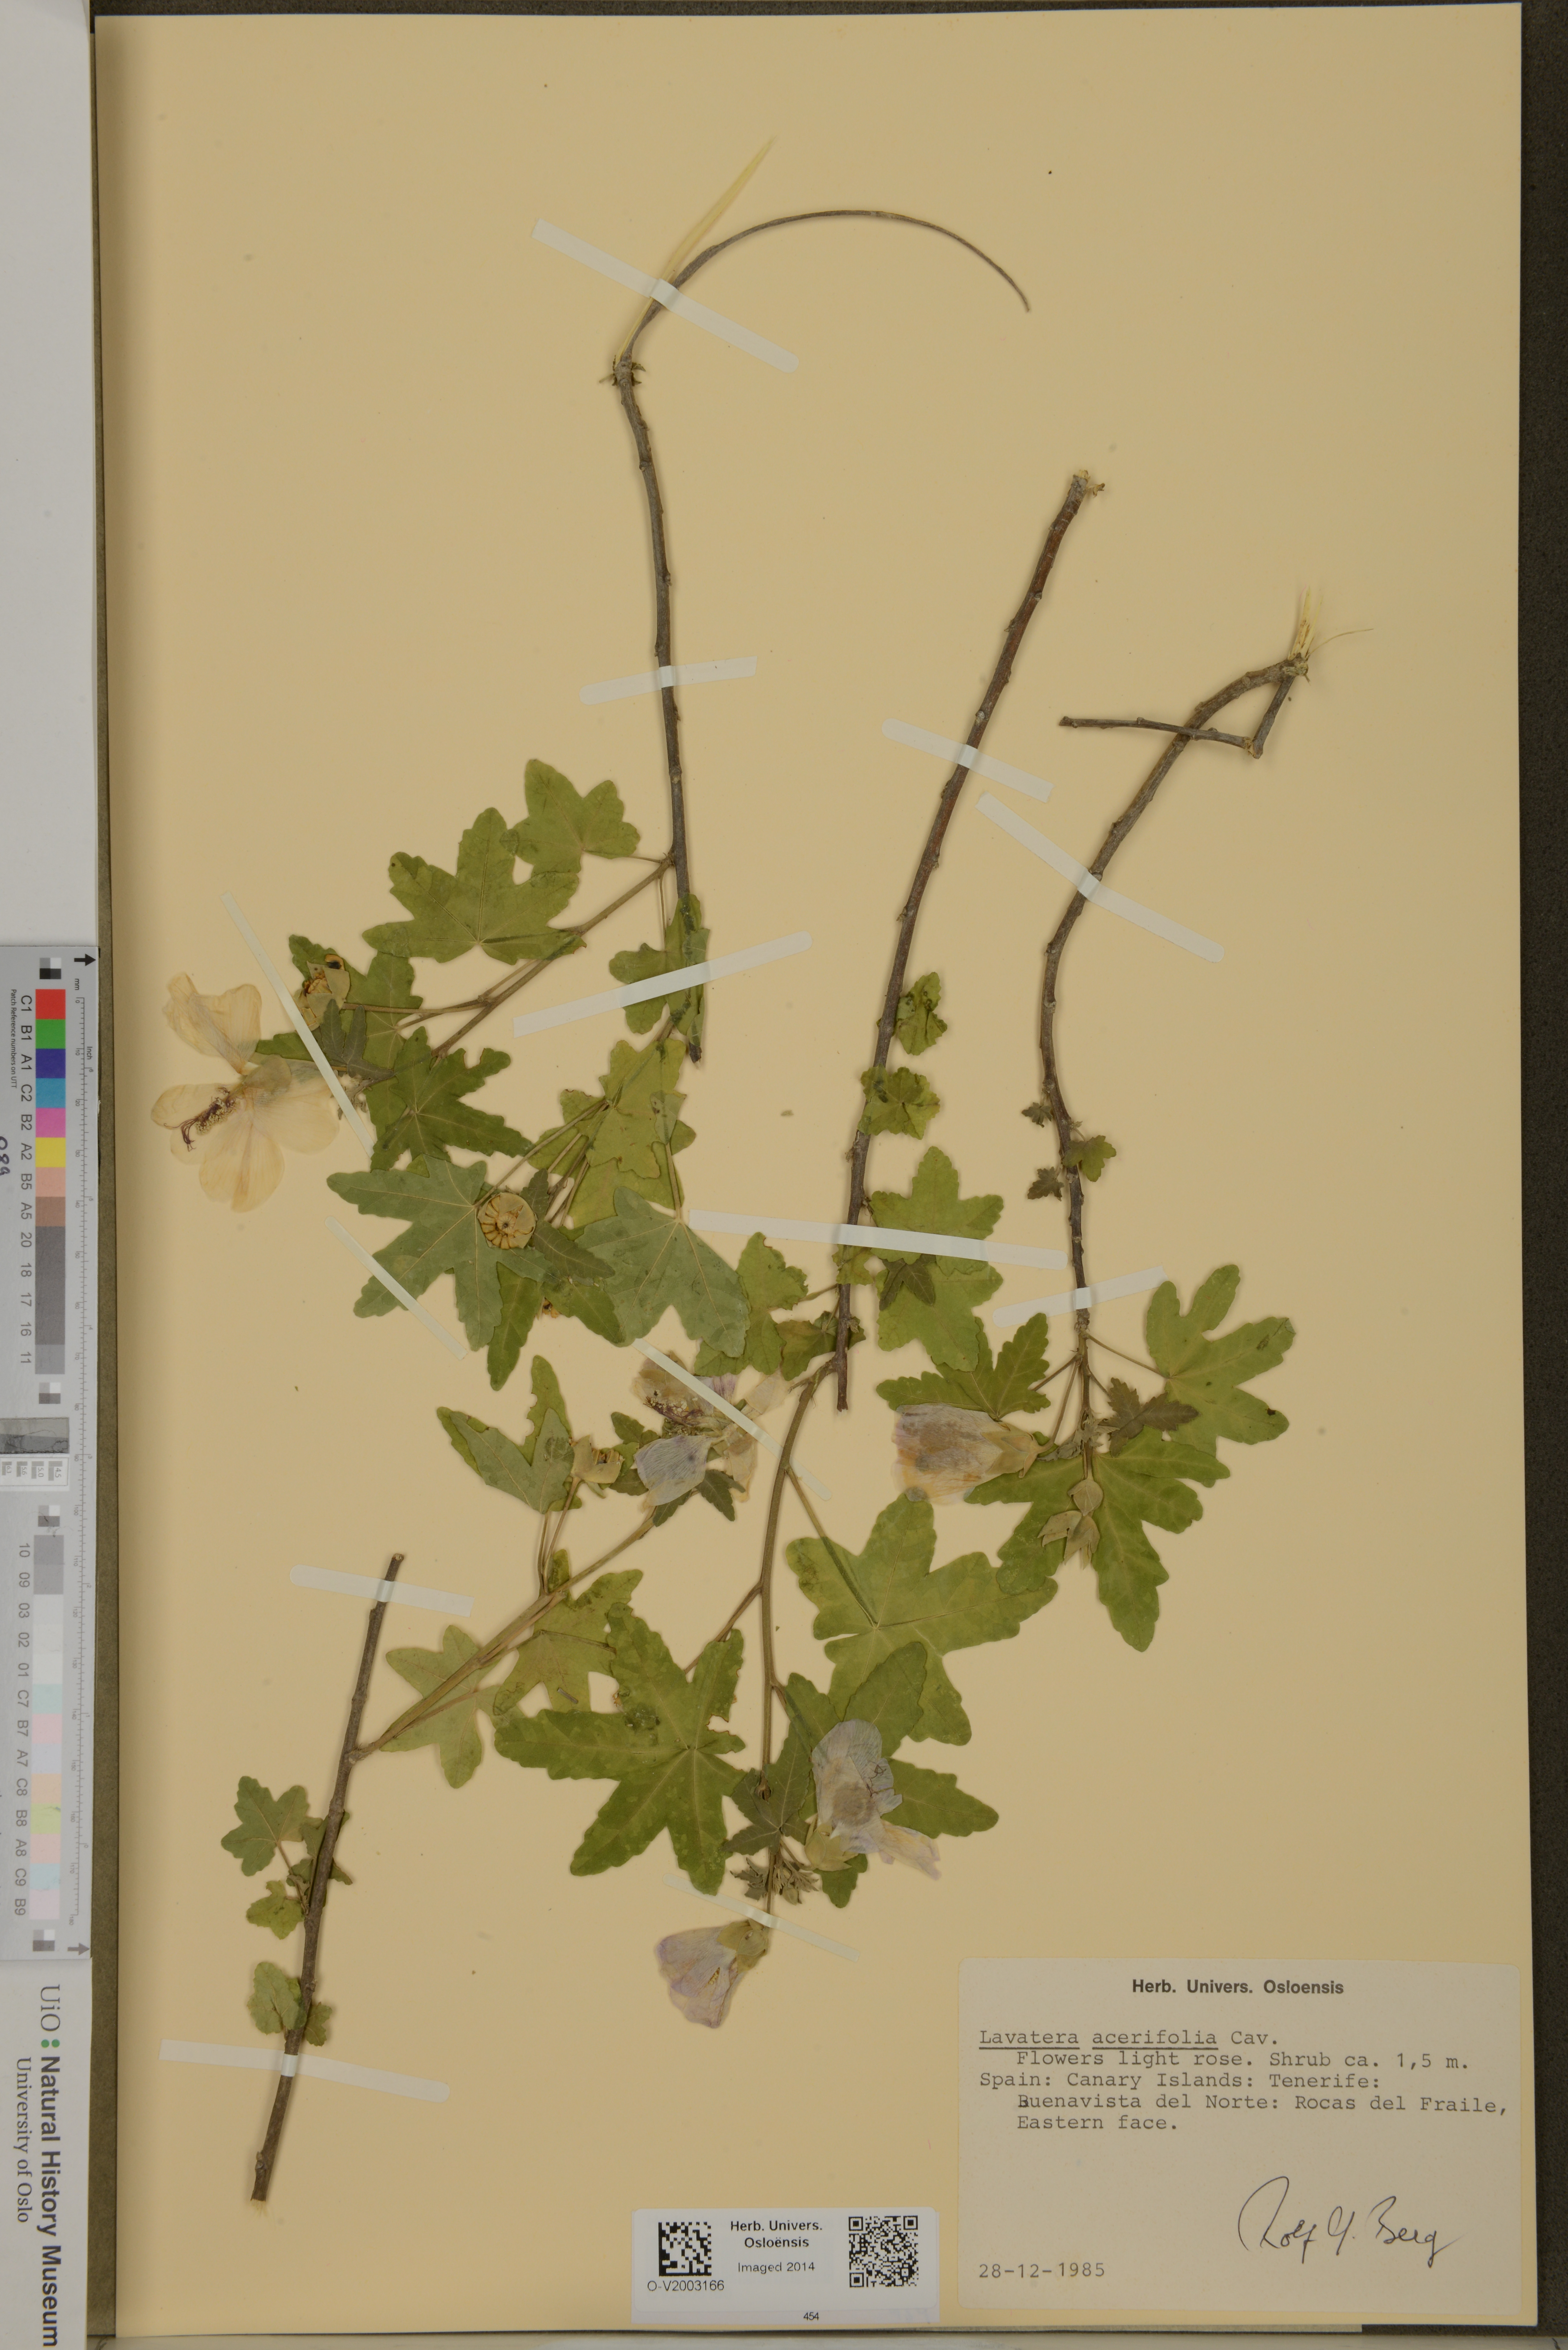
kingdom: Plantae
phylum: Tracheophyta
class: Magnoliopsida
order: Malvales
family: Malvaceae
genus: Malva
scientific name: Malva acerifolia
